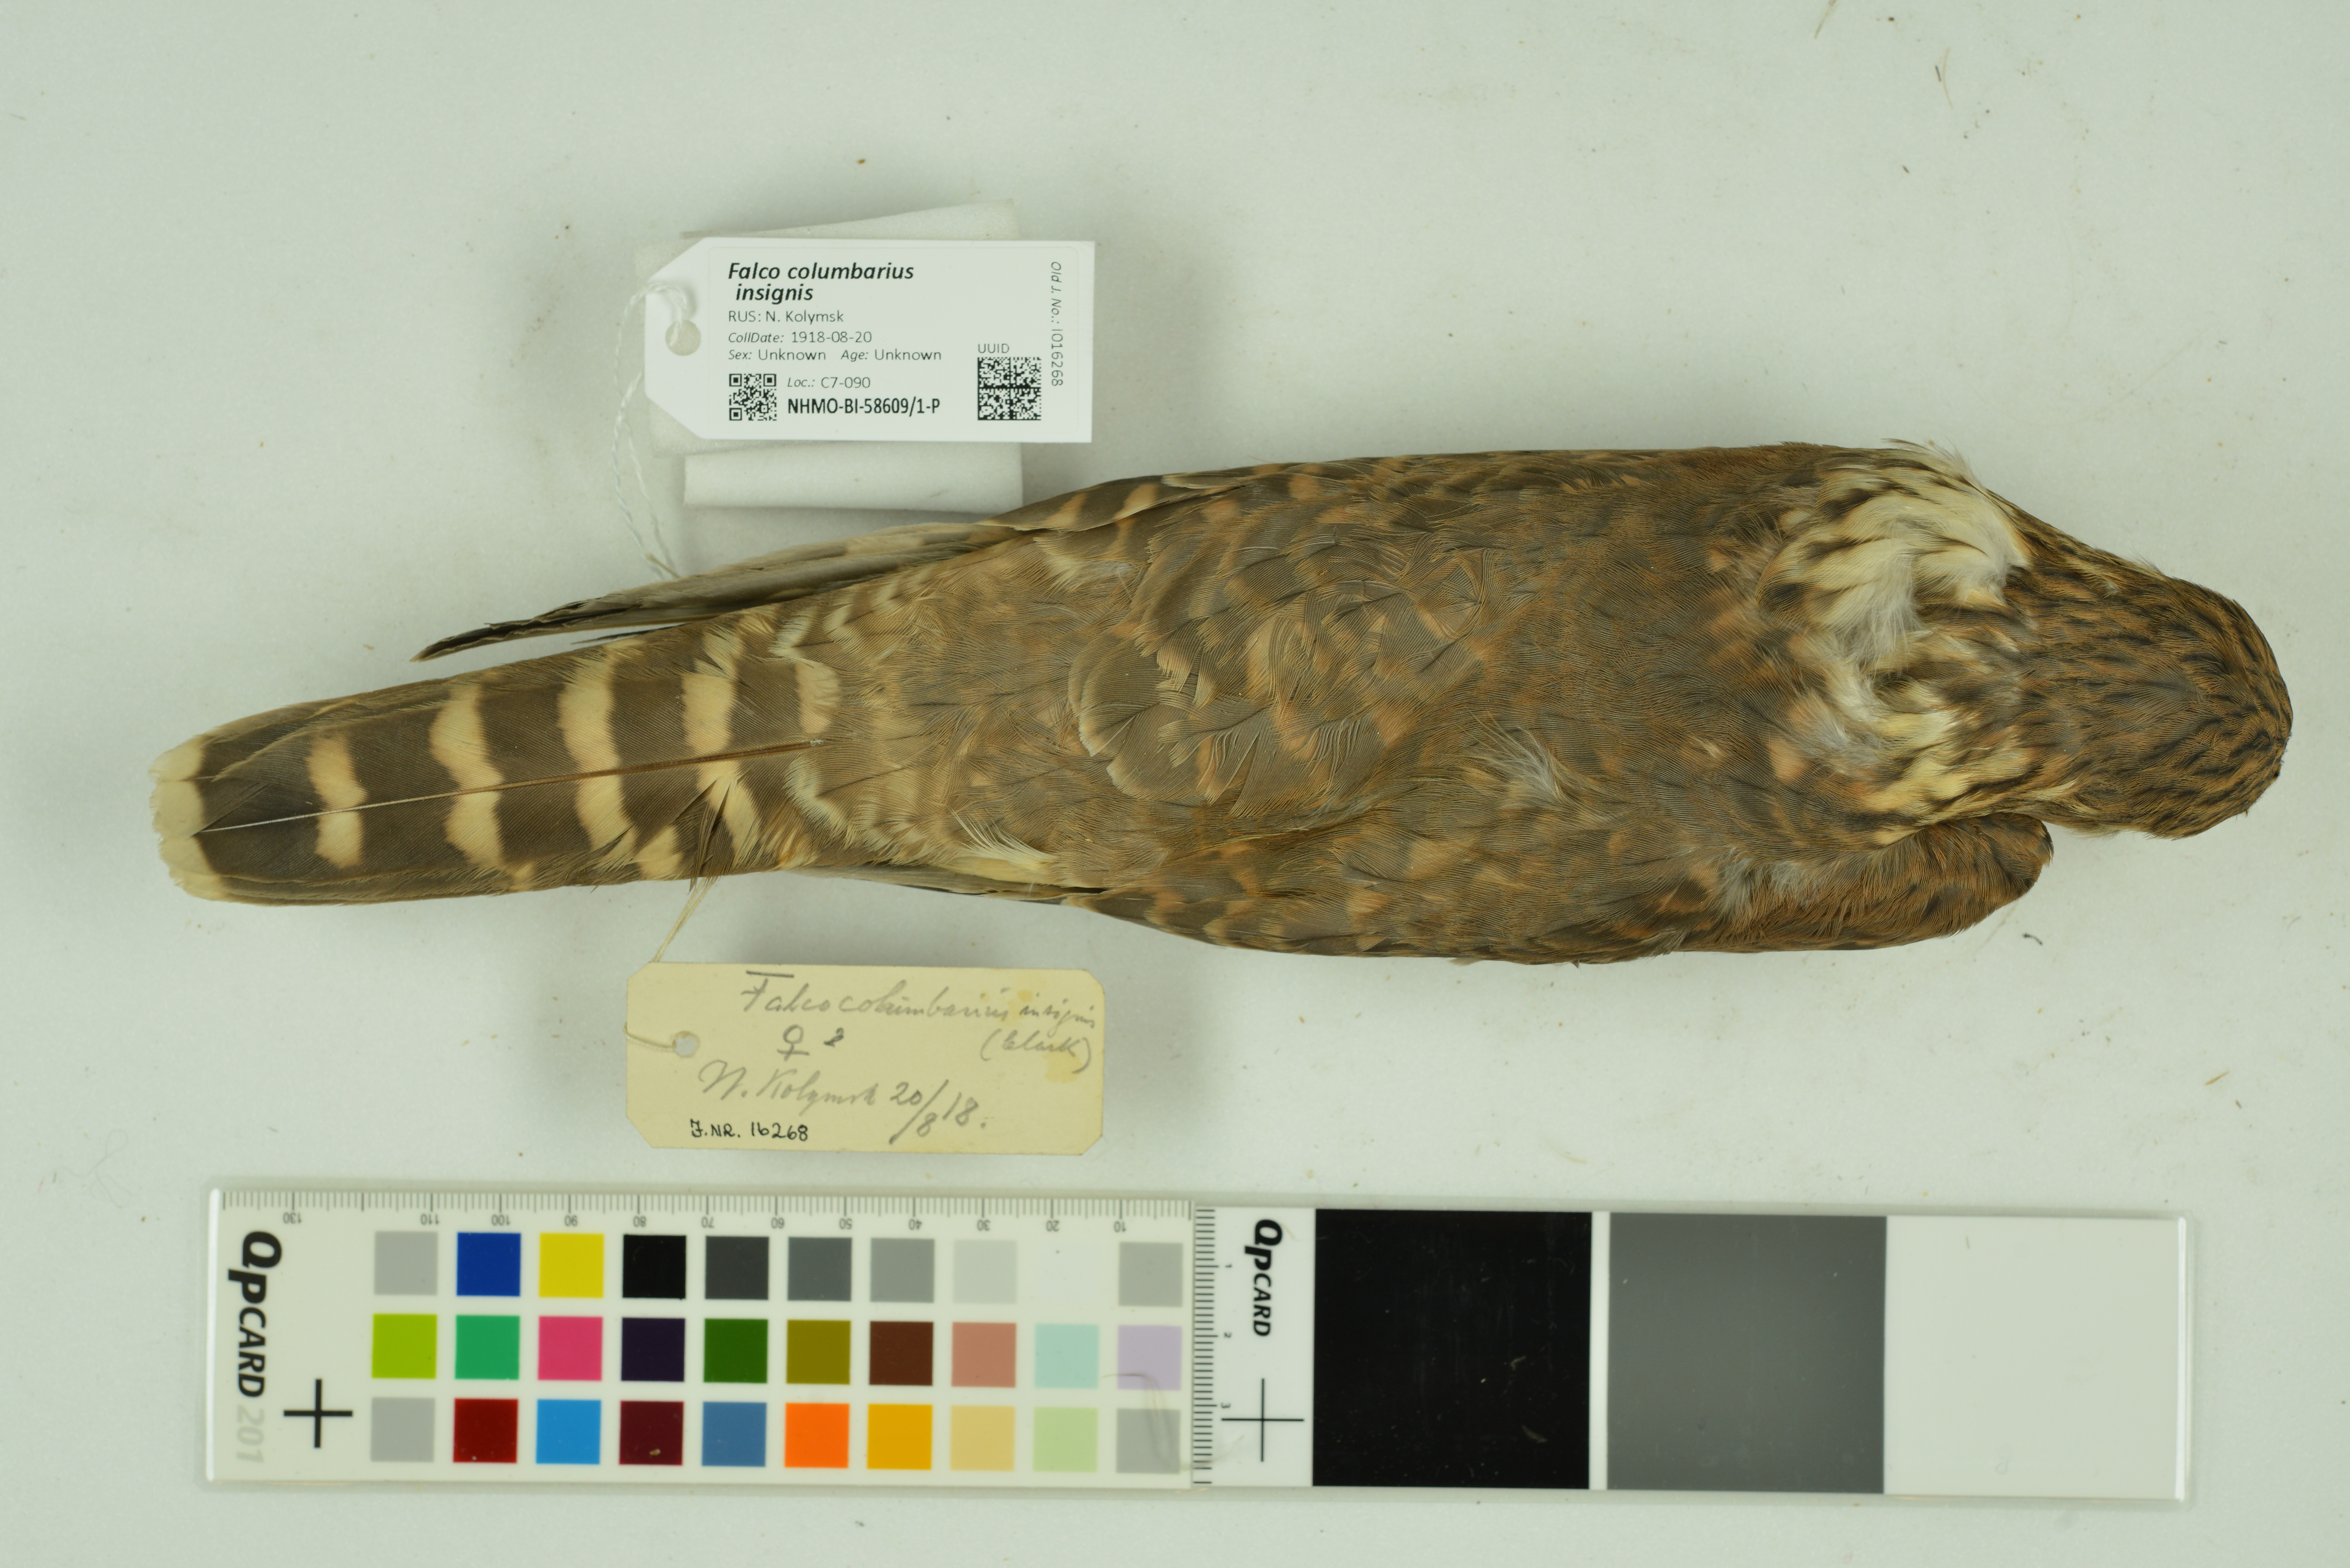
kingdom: Animalia
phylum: Chordata
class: Aves
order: Falconiformes
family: Falconidae
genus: Falco
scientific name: Falco columbarius
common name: Merlin
